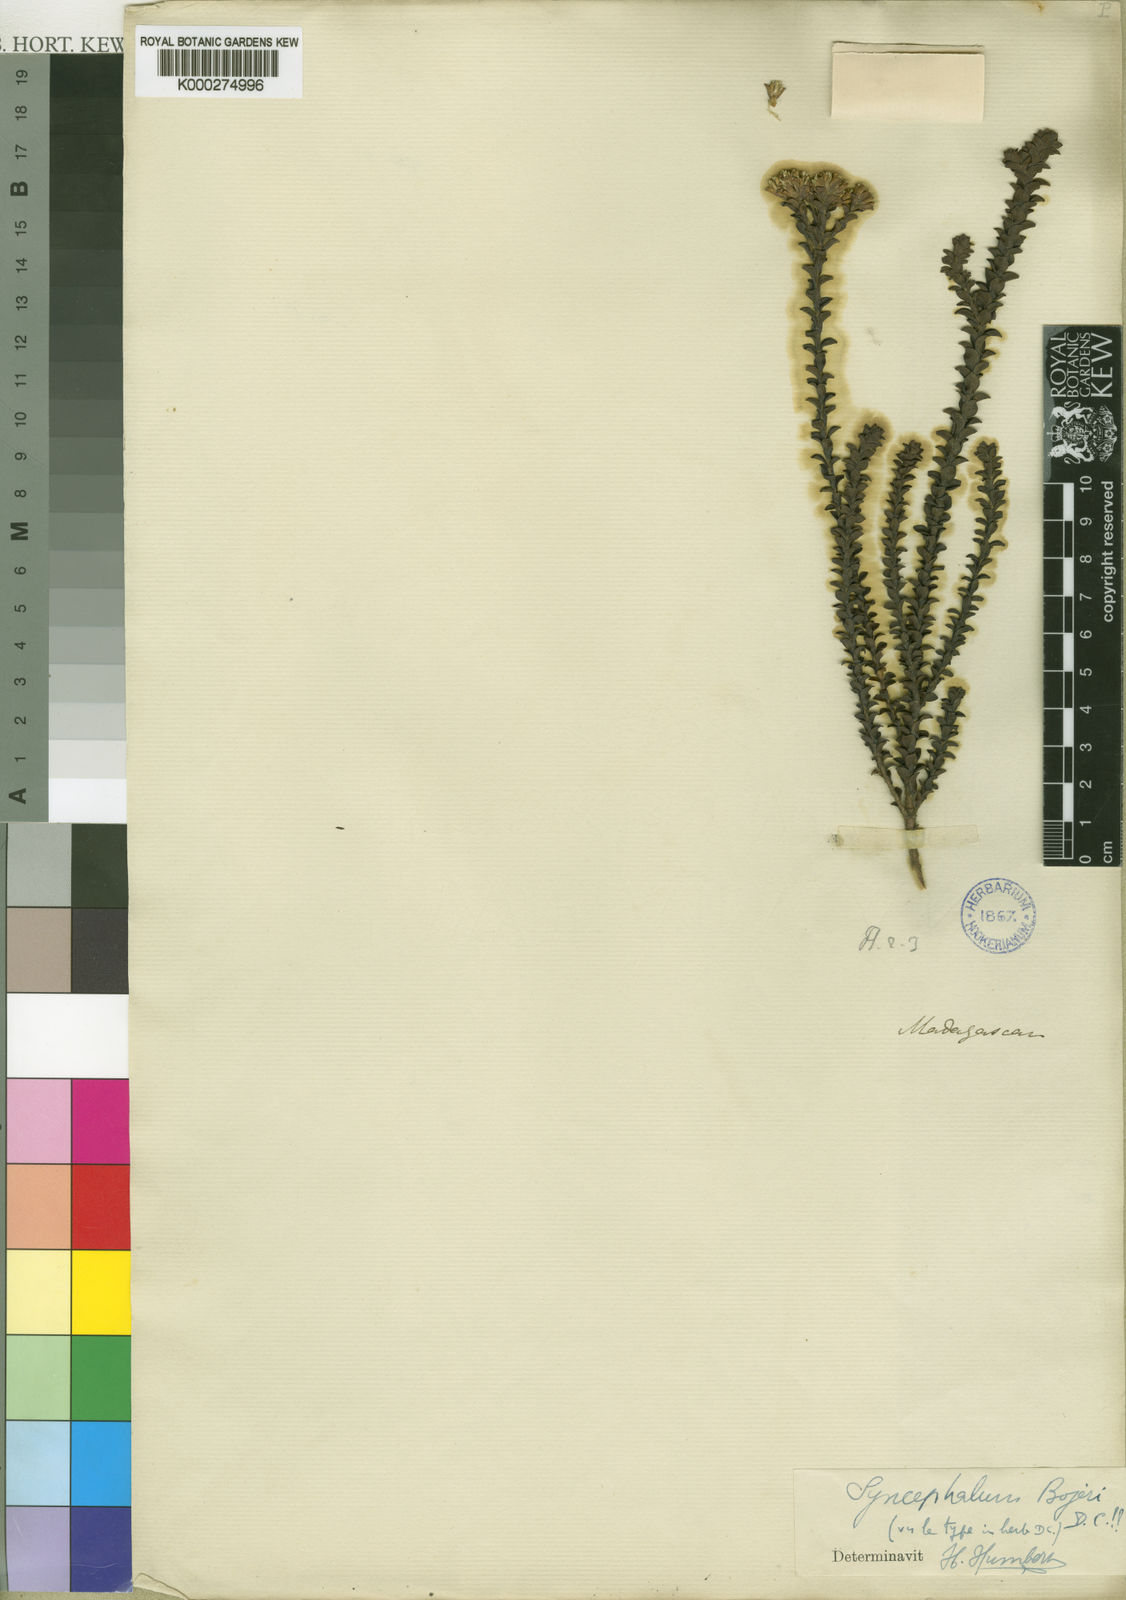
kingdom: Plantae
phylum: Tracheophyta
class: Magnoliopsida
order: Asterales
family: Asteraceae
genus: Syncephalum
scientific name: Syncephalum arbutifolium
